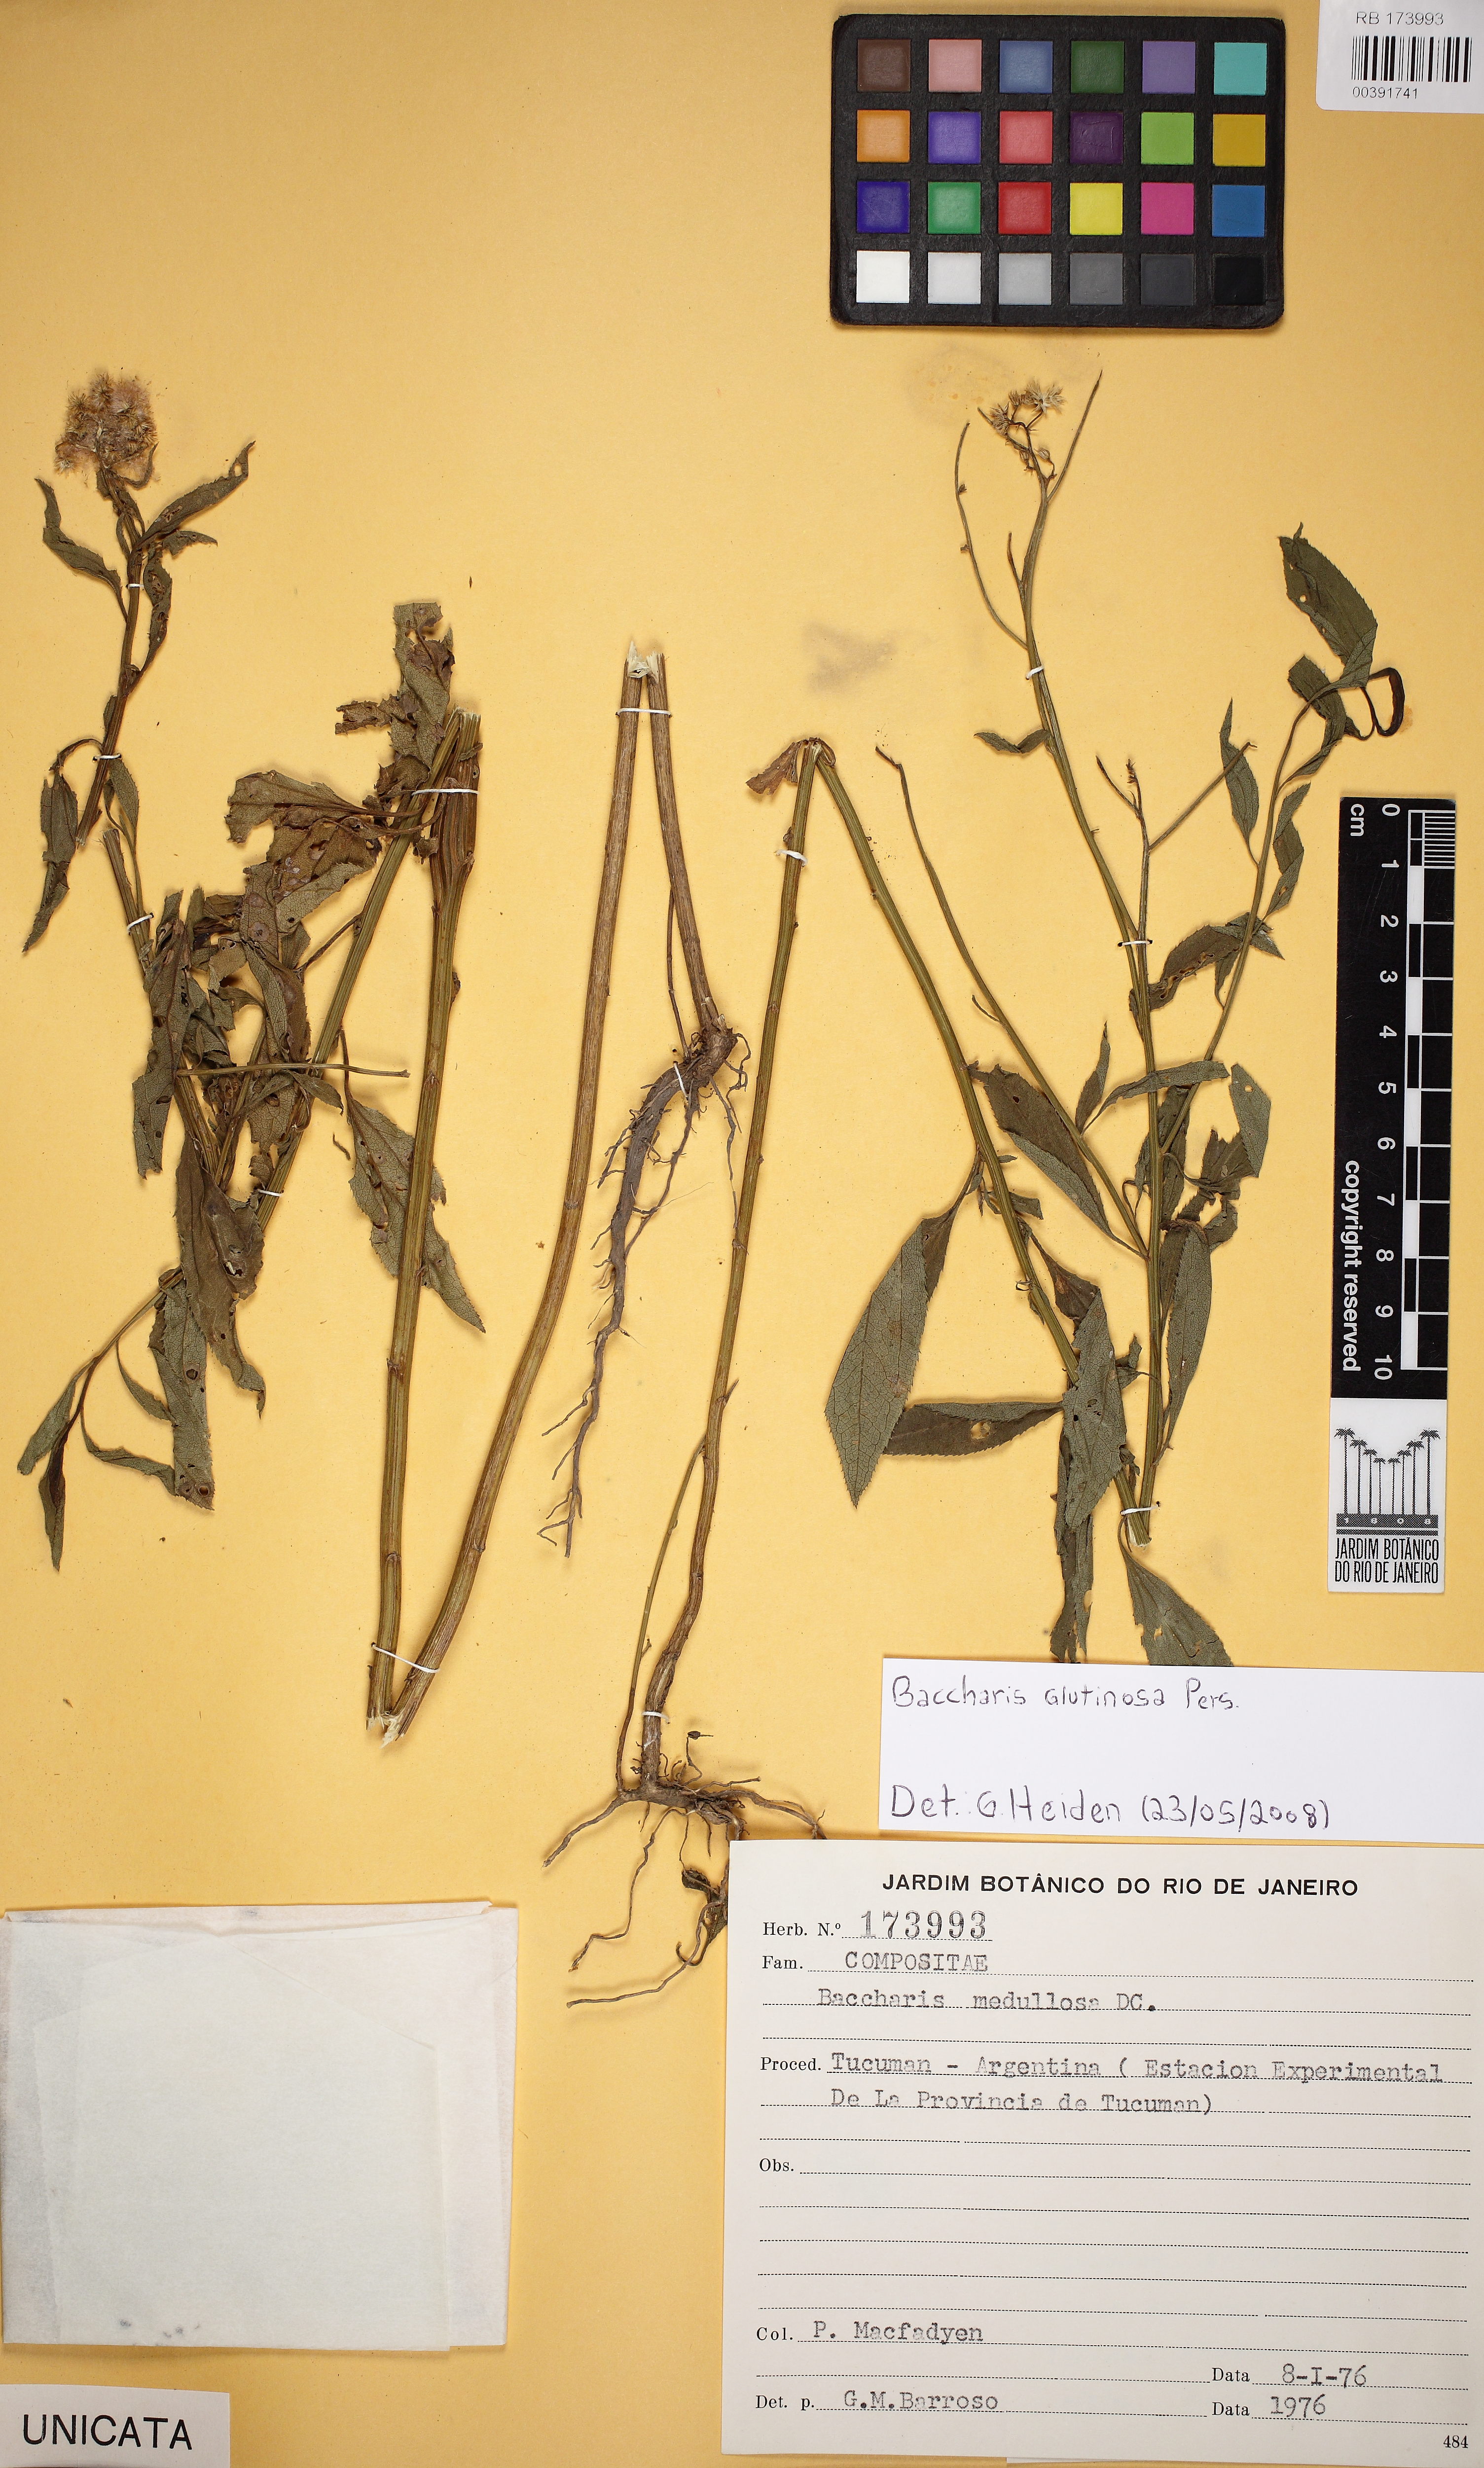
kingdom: Plantae
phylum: Tracheophyta
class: Magnoliopsida
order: Asterales
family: Asteraceae
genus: Baccharis
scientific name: Baccharis glutinosa
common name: Saltmarsh baccharis
